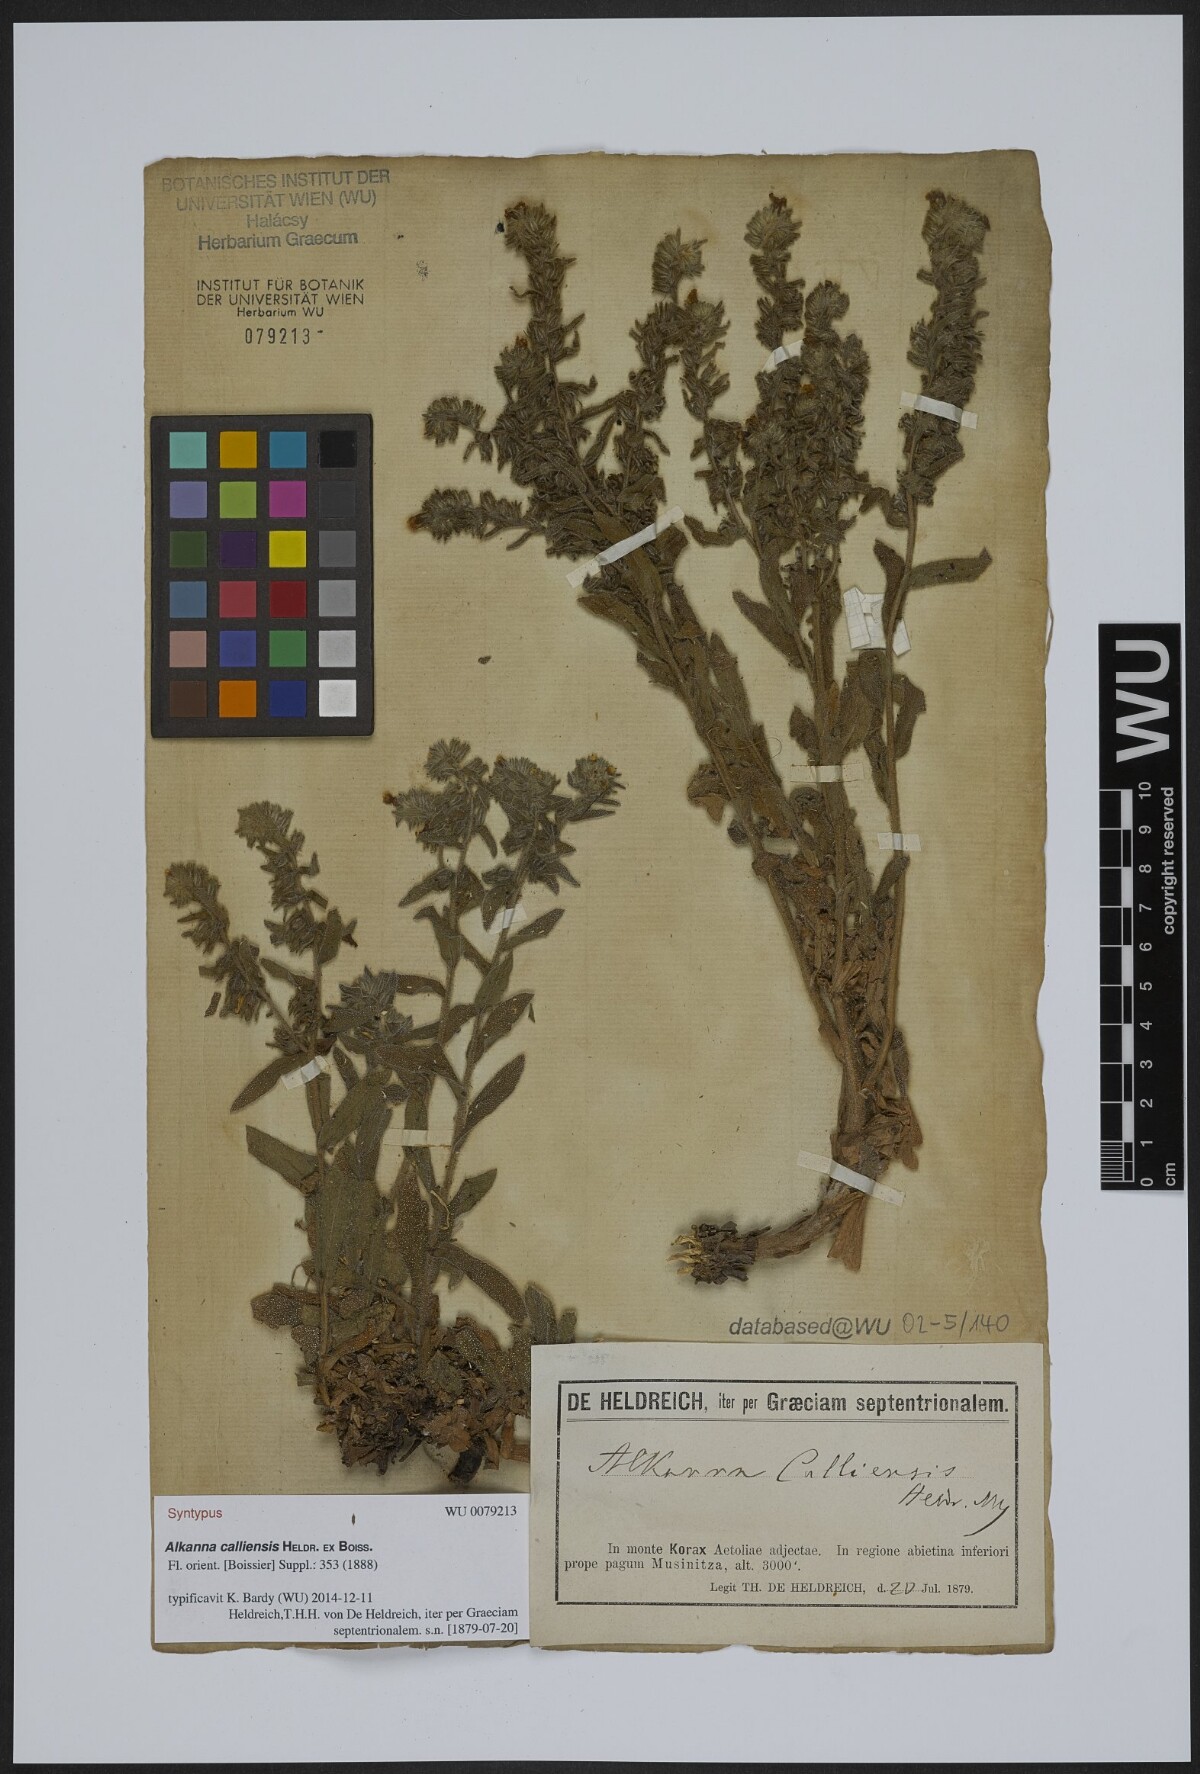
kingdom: Plantae
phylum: Tracheophyta
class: Magnoliopsida
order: Boraginales
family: Boraginaceae
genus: Alkanna
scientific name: Alkanna calliensis
